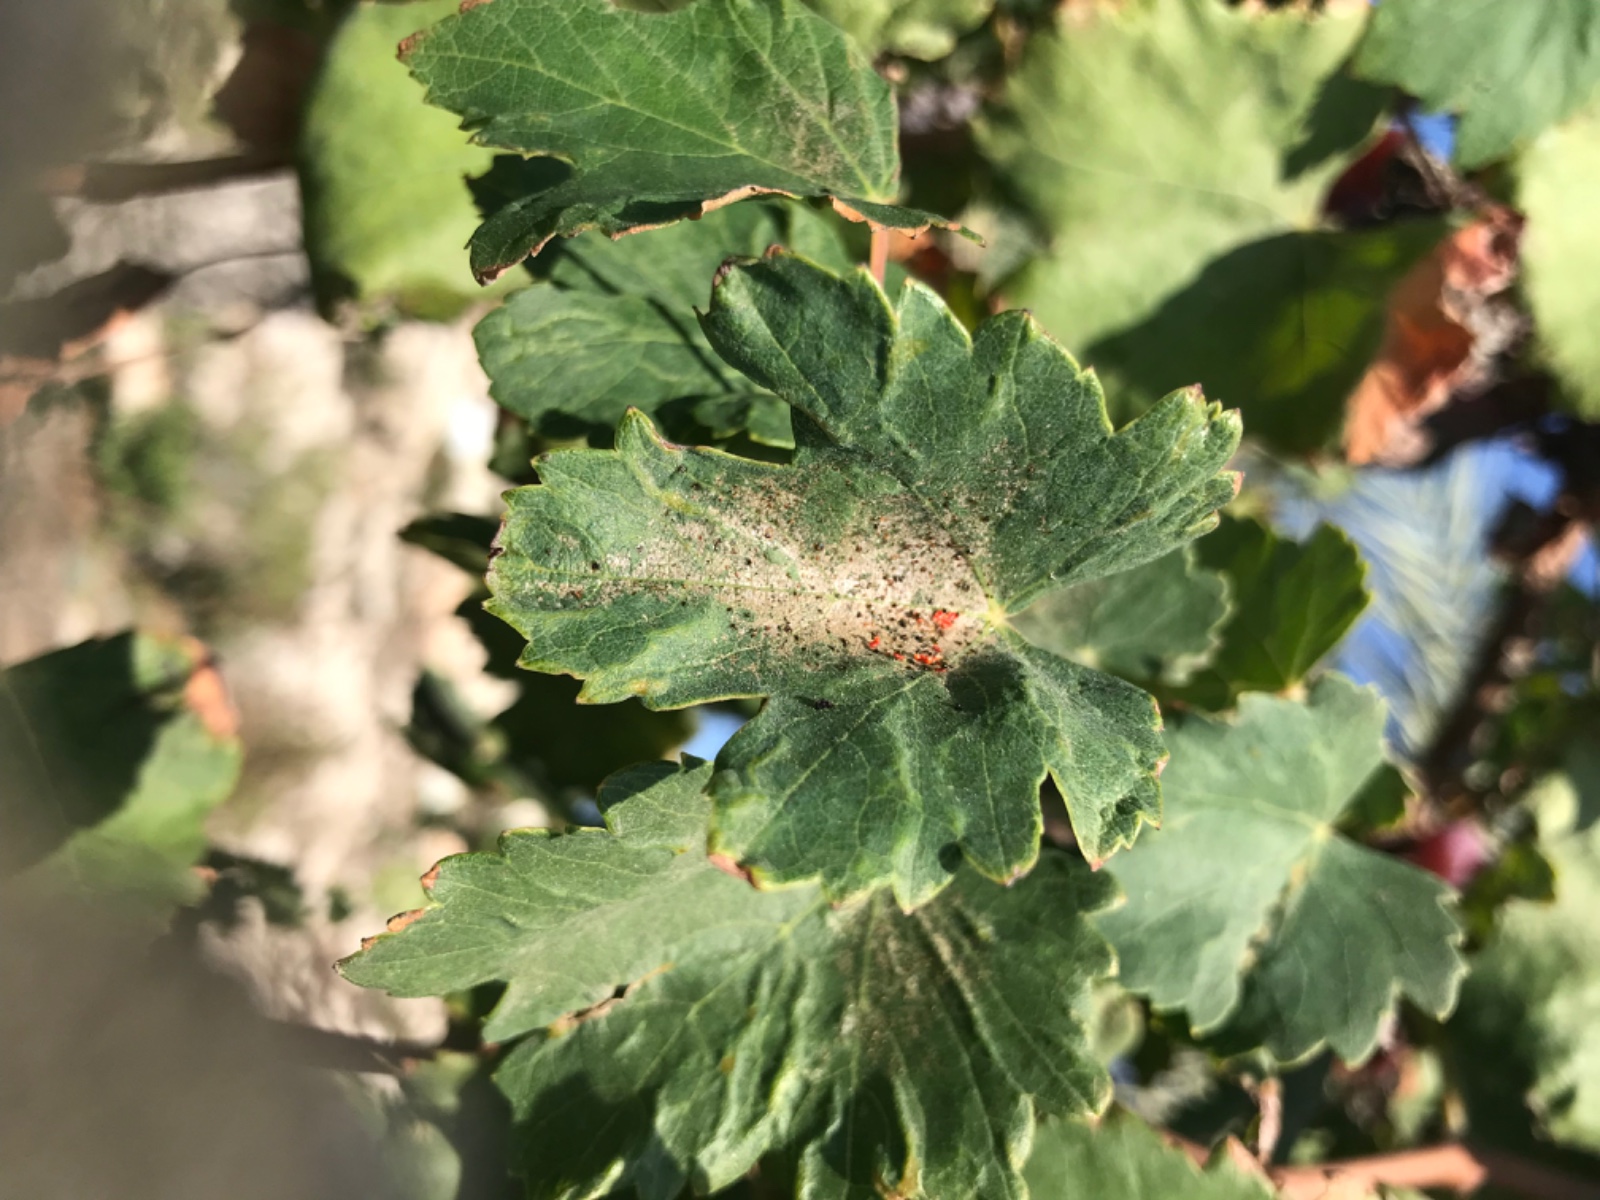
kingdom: Fungi
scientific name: Fungi
